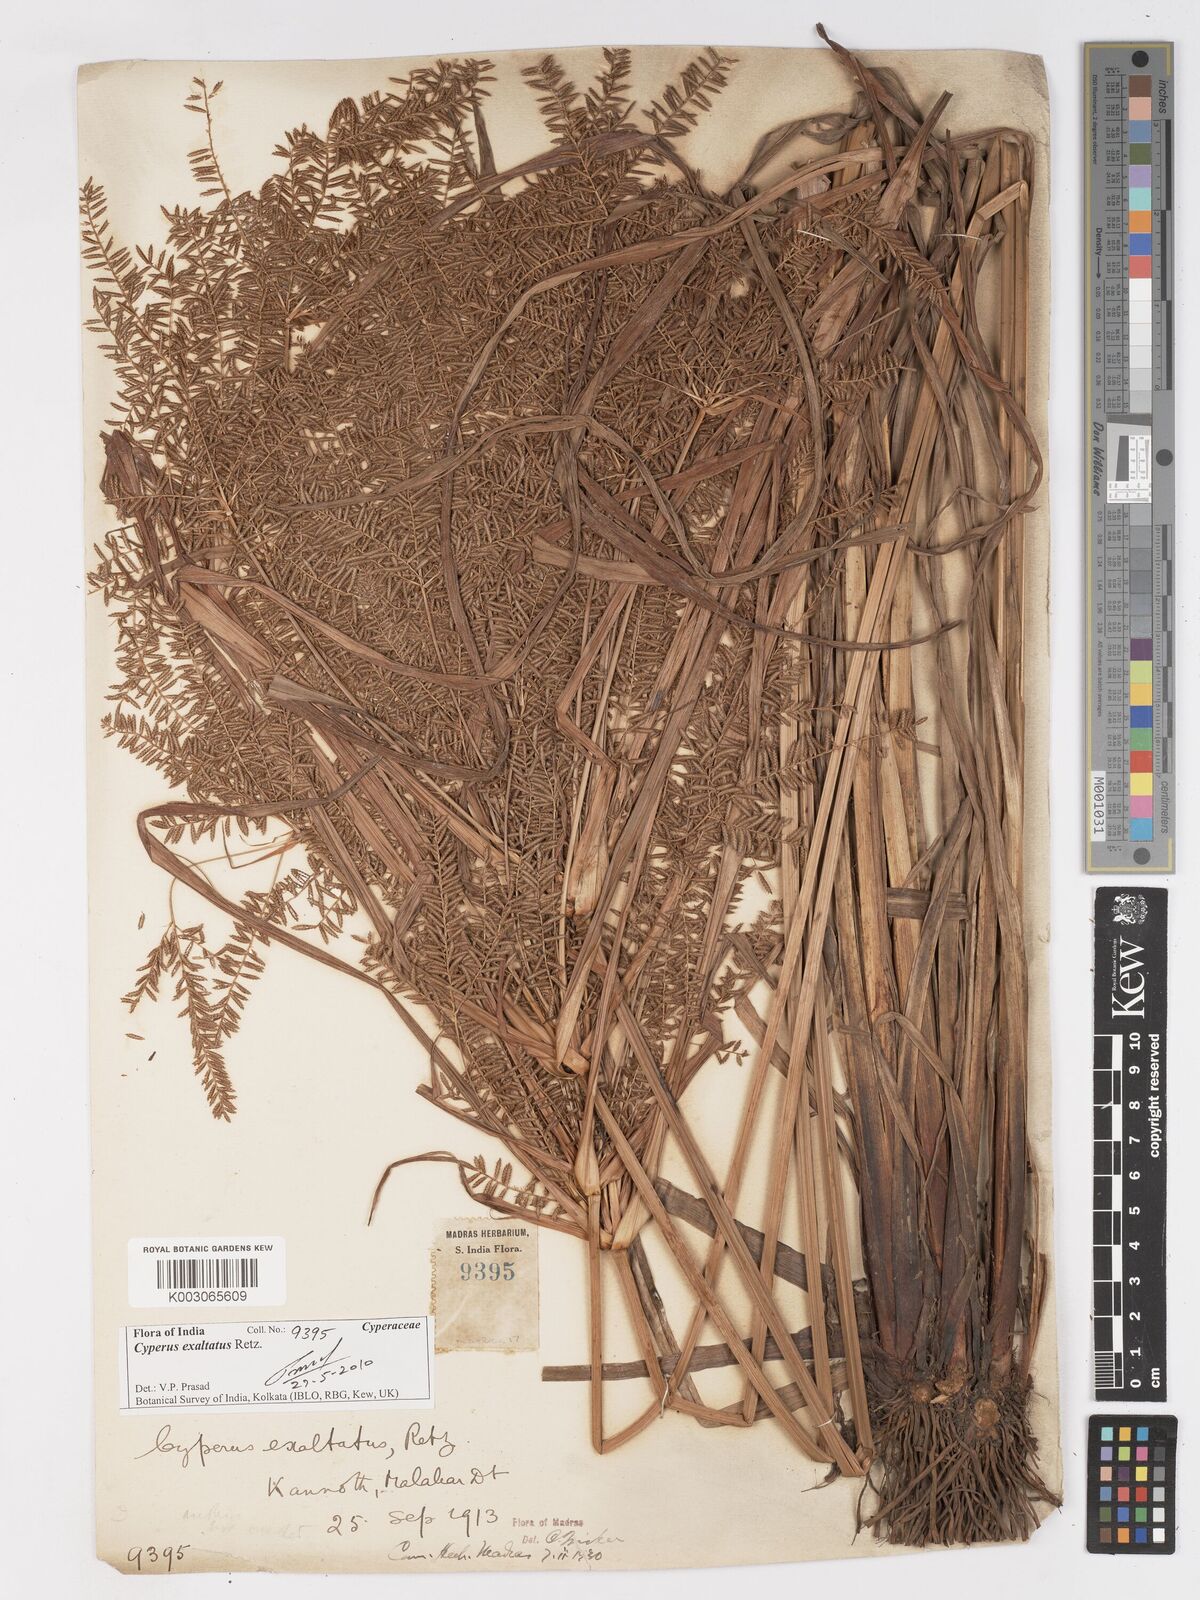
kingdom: Plantae
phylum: Tracheophyta
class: Liliopsida
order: Poales
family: Cyperaceae
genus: Cyperus
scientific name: Cyperus exaltatus
